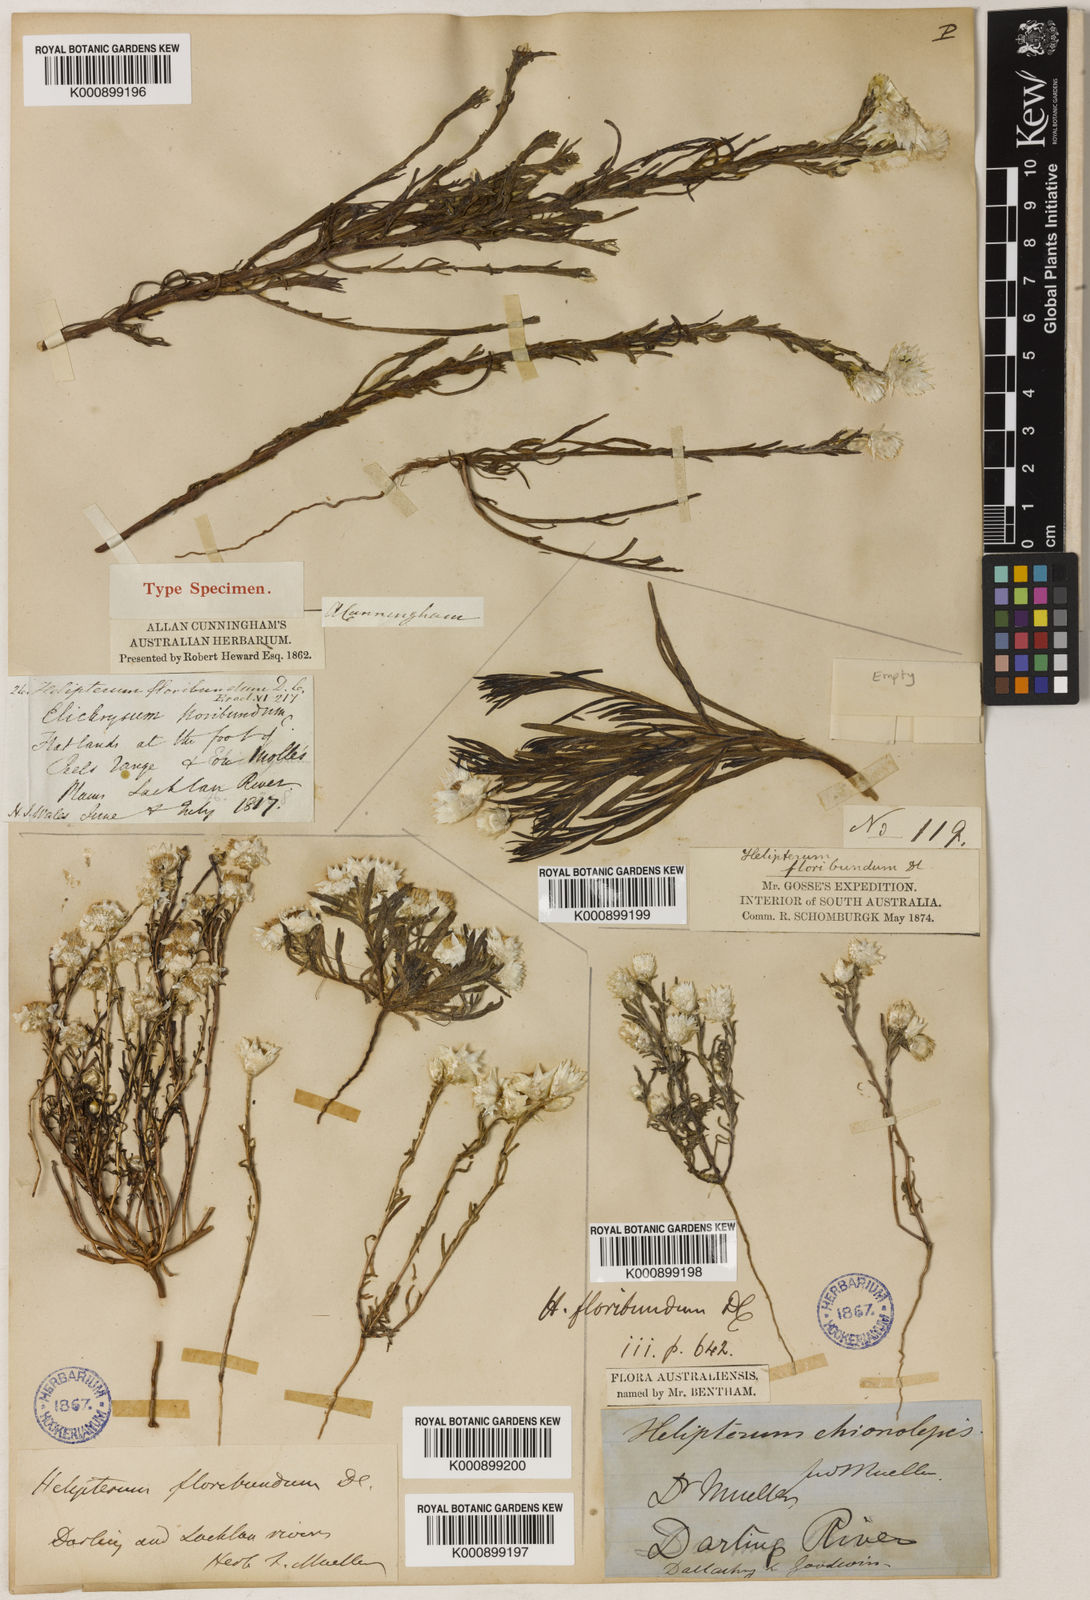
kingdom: Plantae
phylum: Tracheophyta
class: Magnoliopsida
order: Asterales
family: Asteraceae
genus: Rhodanthe
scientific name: Rhodanthe floribunda
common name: Flowery sunray
